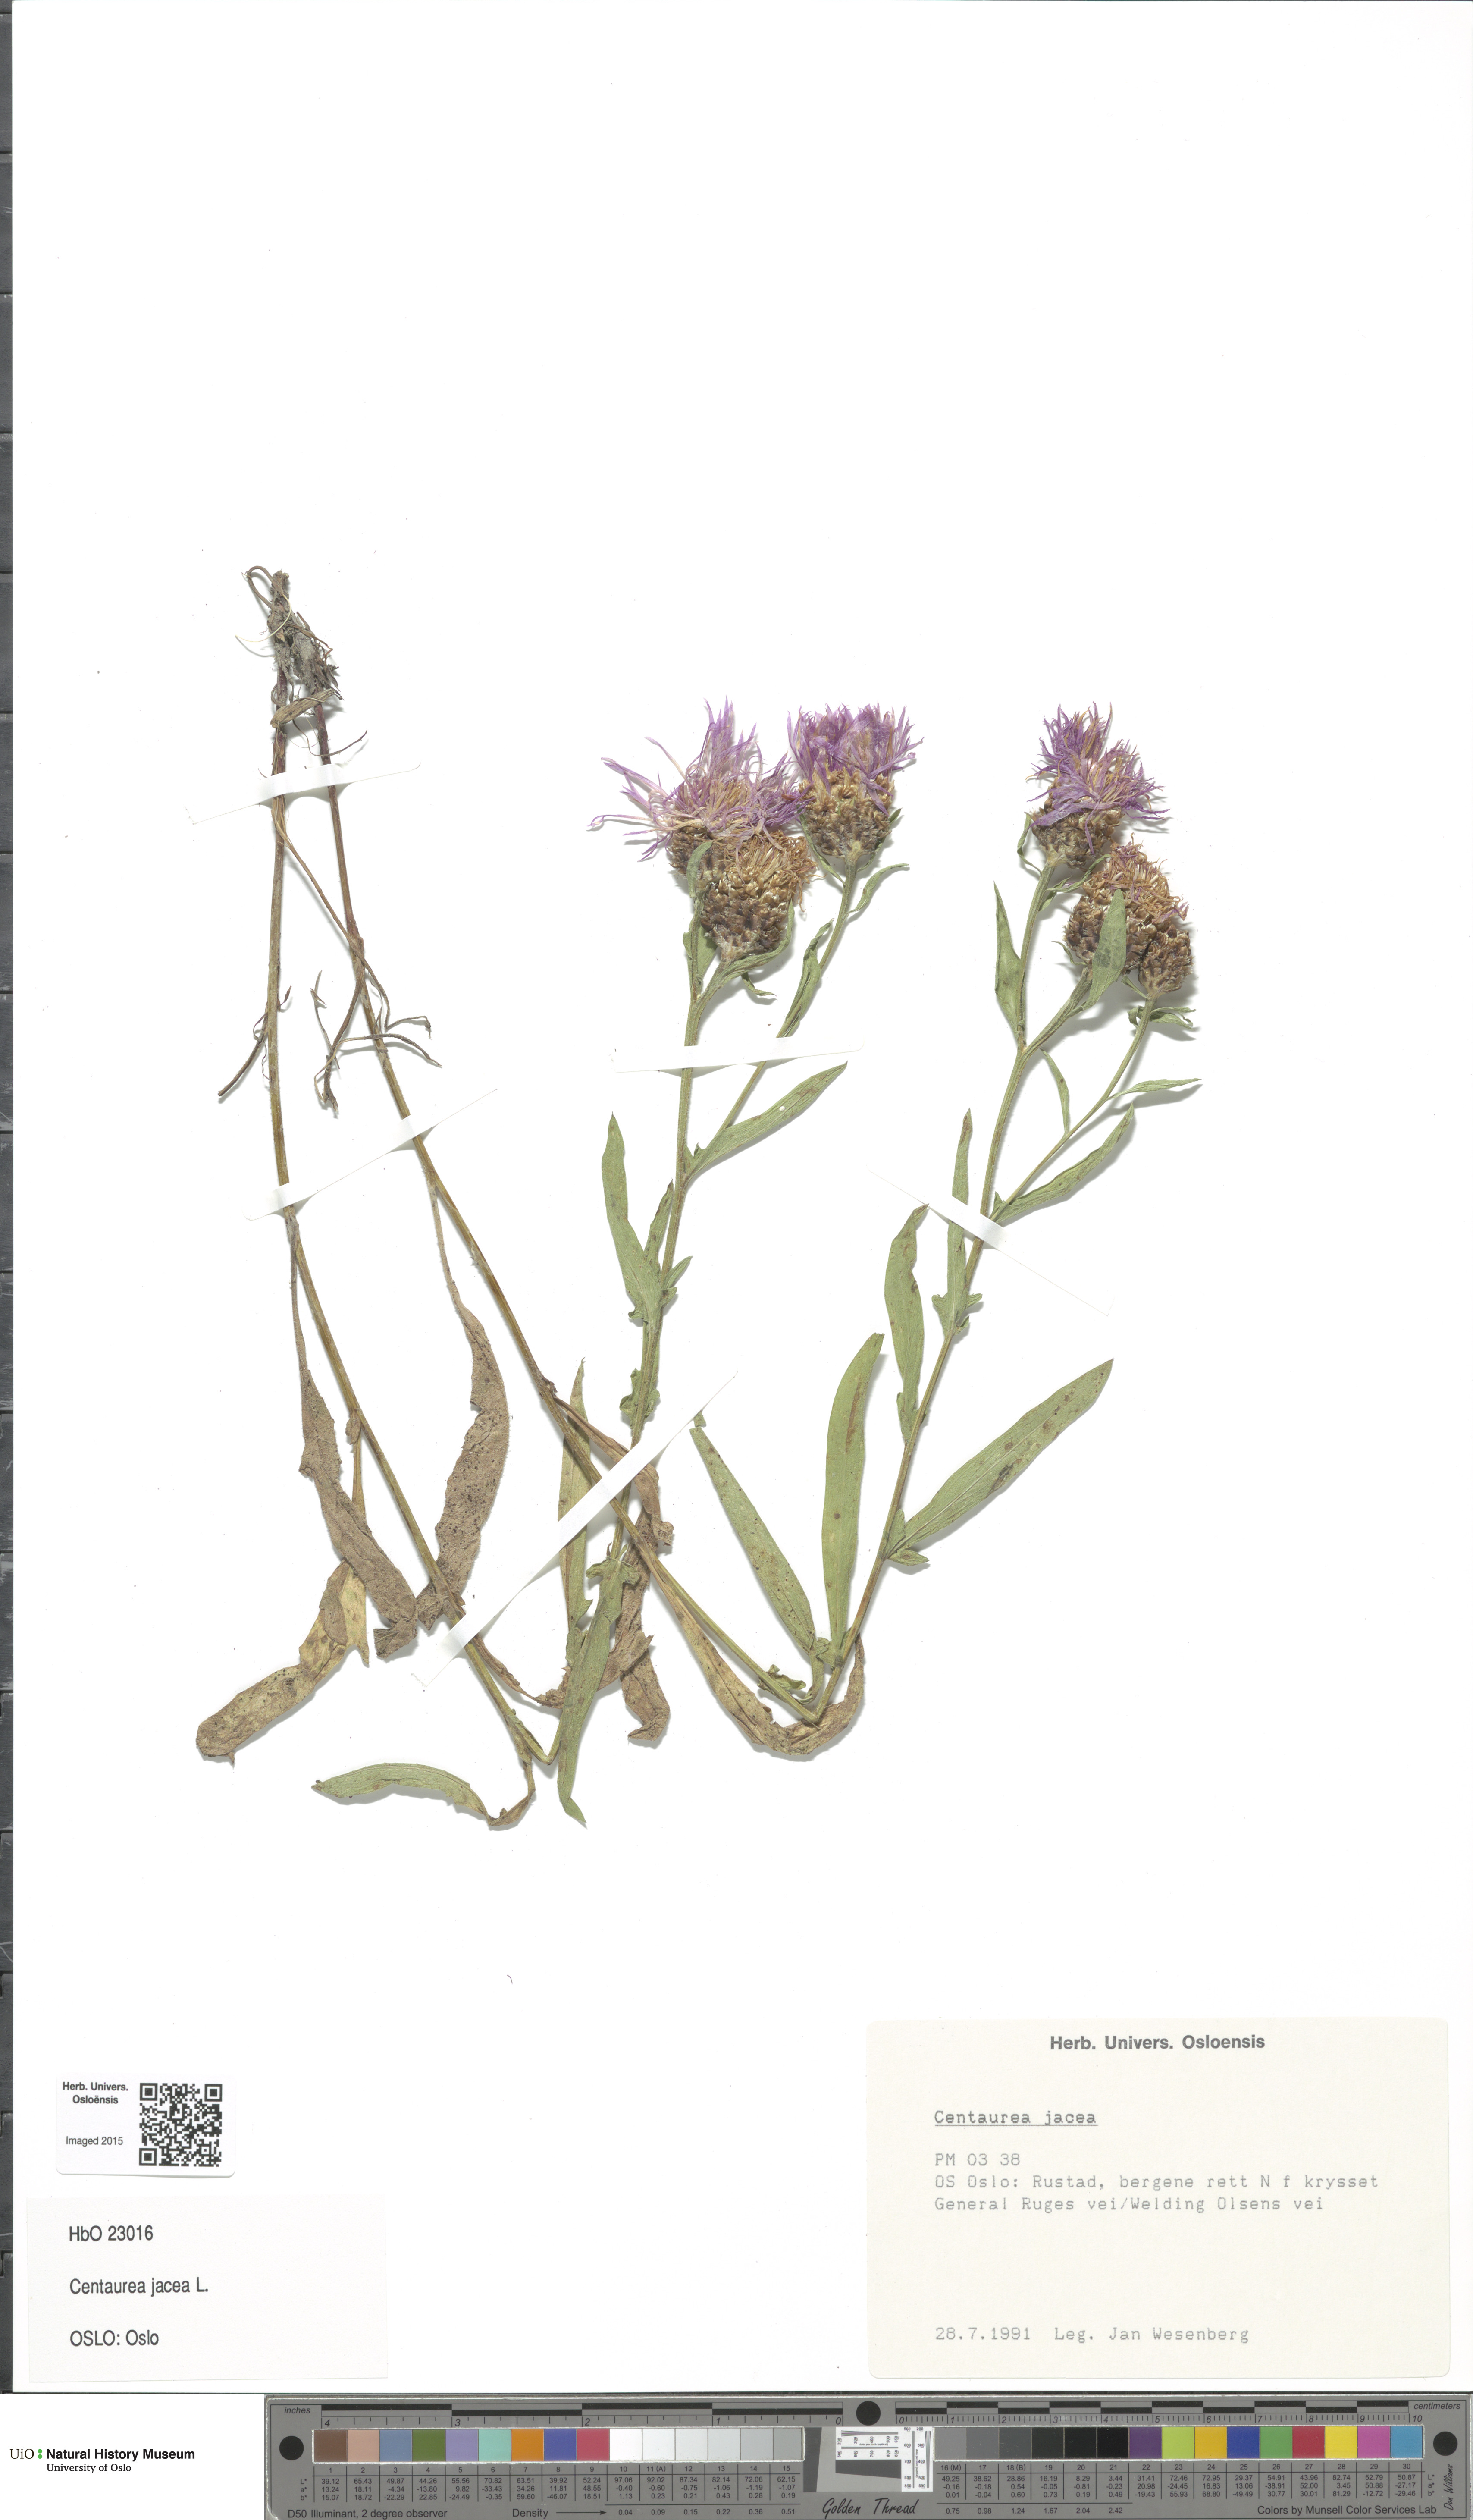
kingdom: Plantae
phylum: Tracheophyta
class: Magnoliopsida
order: Asterales
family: Asteraceae
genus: Centaurea
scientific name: Centaurea jacea
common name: Brown knapweed
